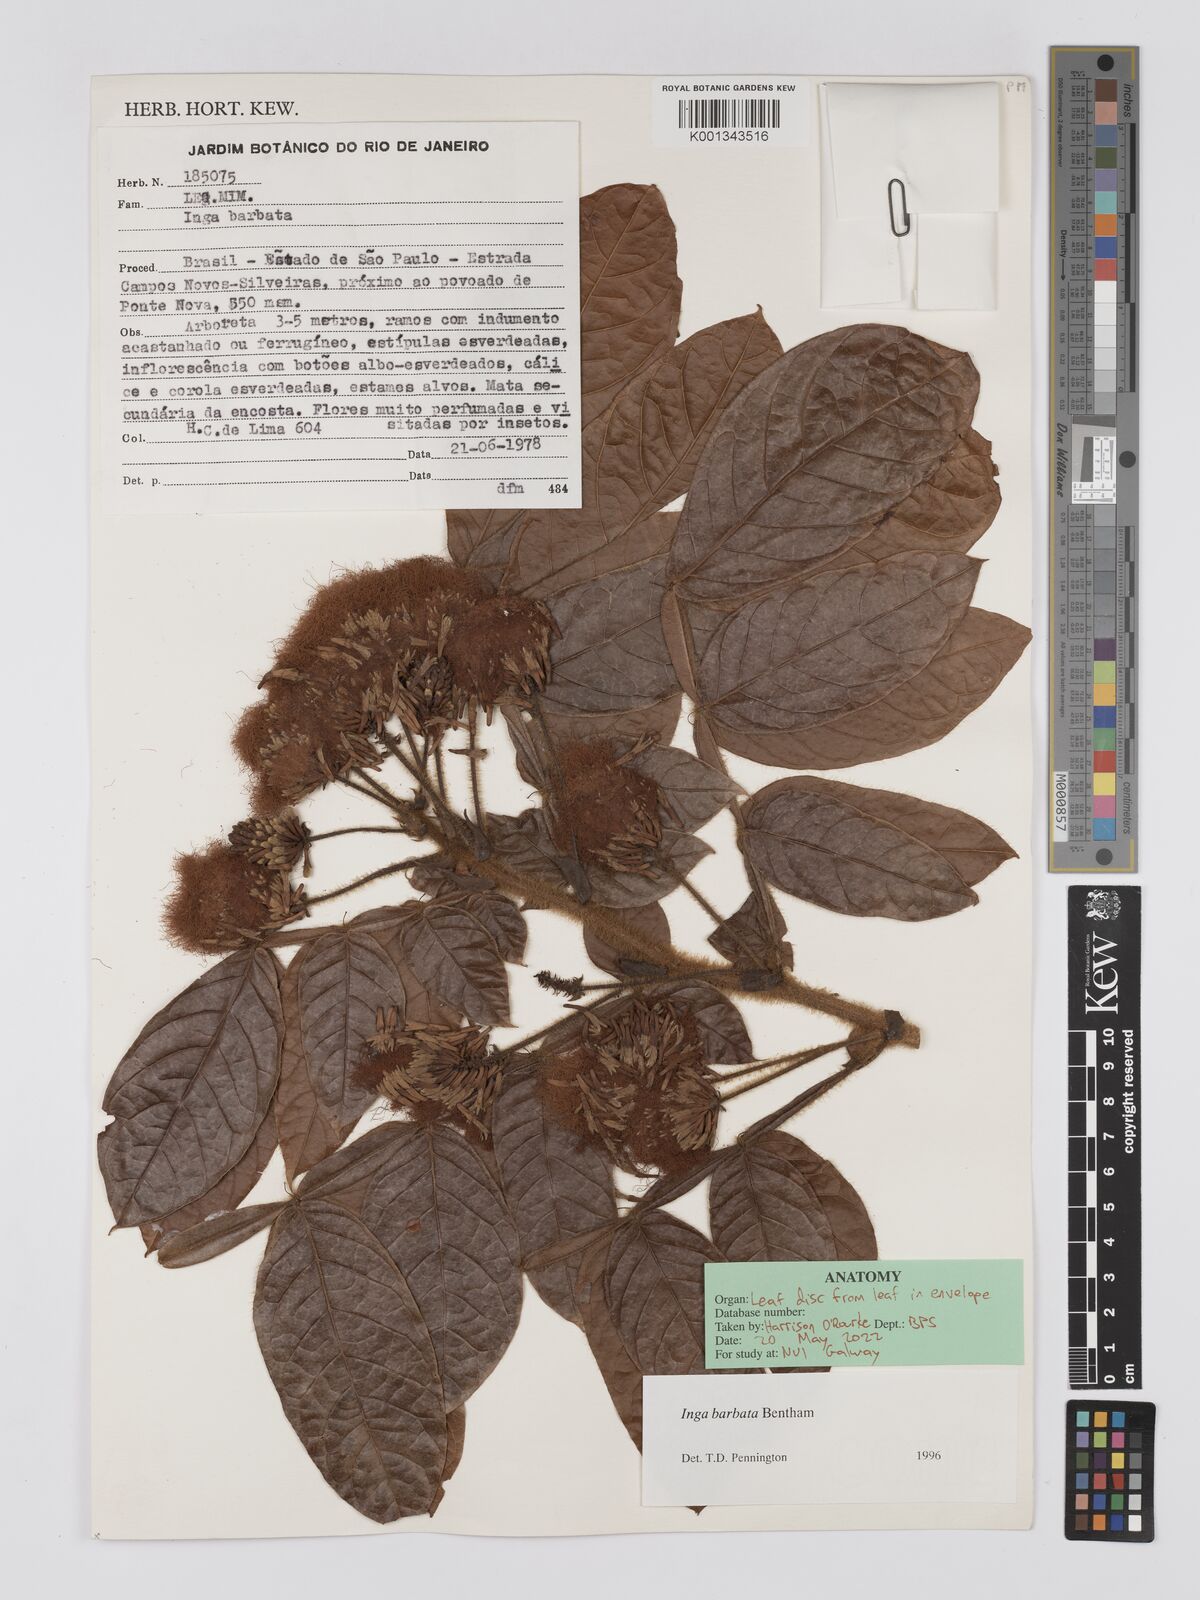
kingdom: Plantae
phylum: Tracheophyta
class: Magnoliopsida
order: Fabales
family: Fabaceae
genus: Inga
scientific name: Inga barbata
